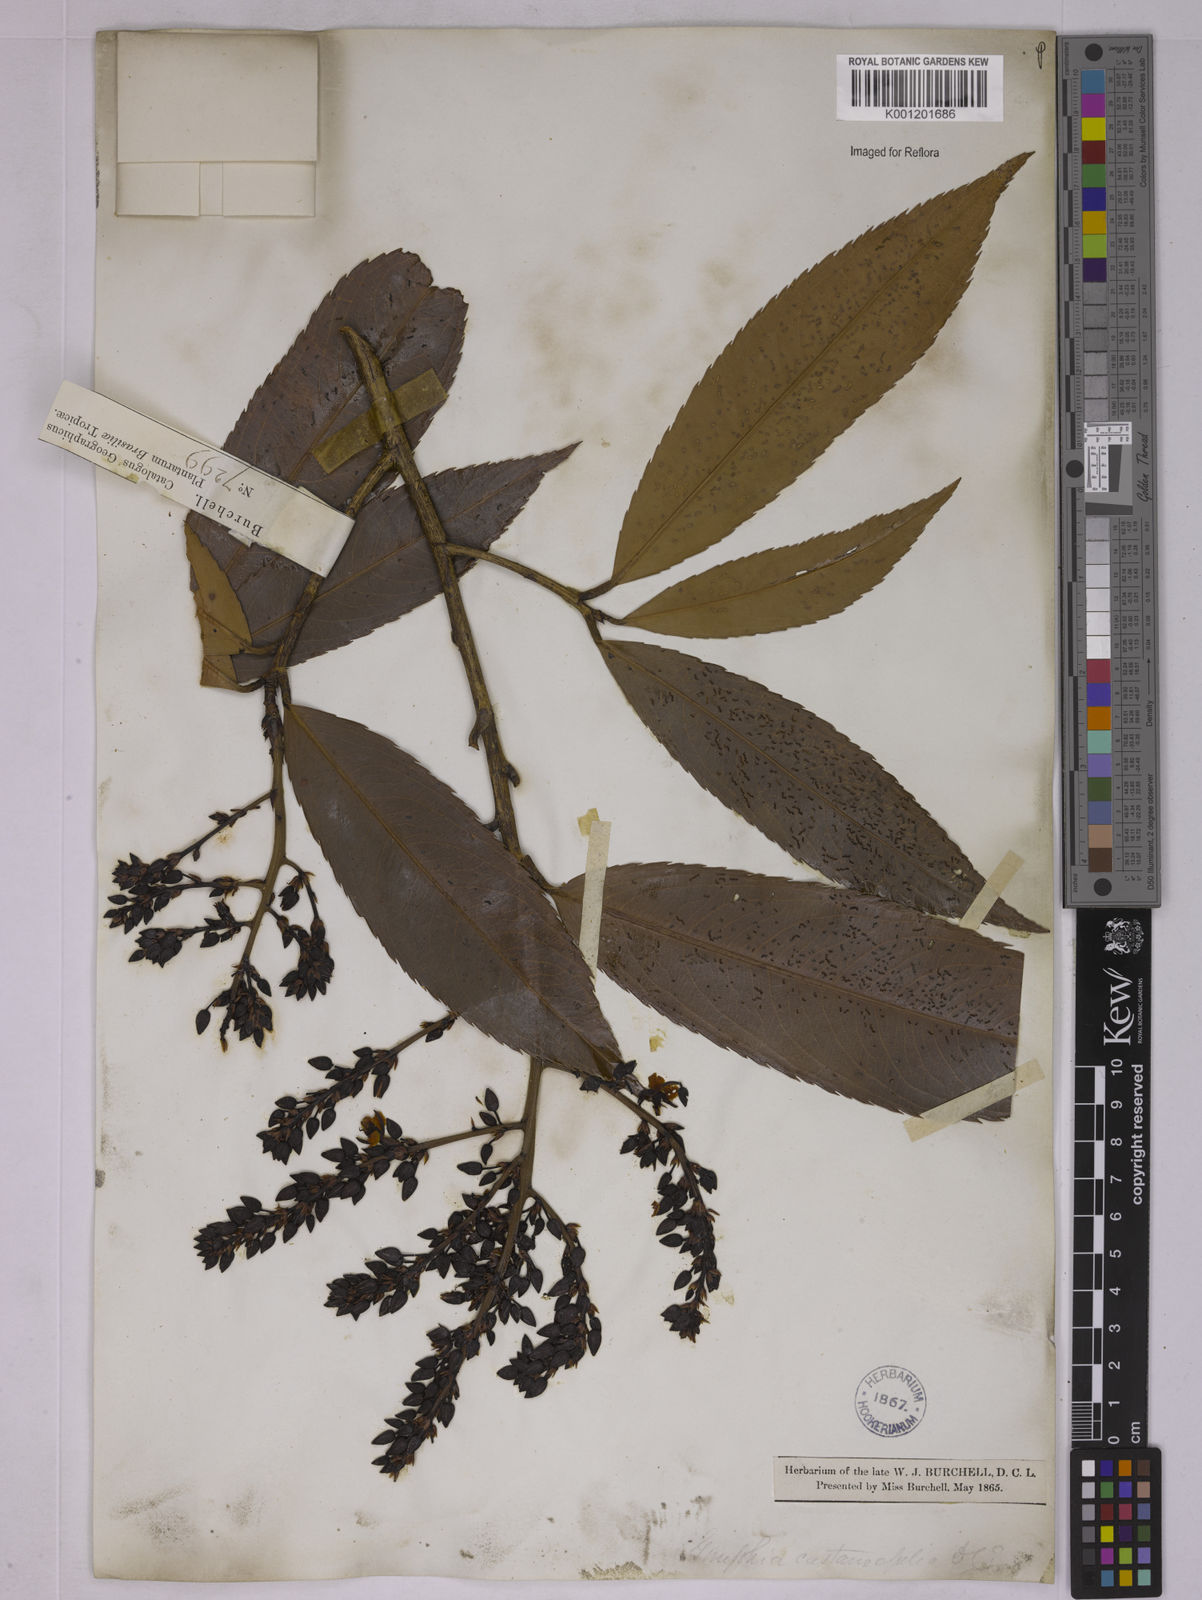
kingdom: Plantae
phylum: Tracheophyta
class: Magnoliopsida
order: Malpighiales
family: Ochnaceae
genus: Ouratea
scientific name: Ouratea castaneifolia
